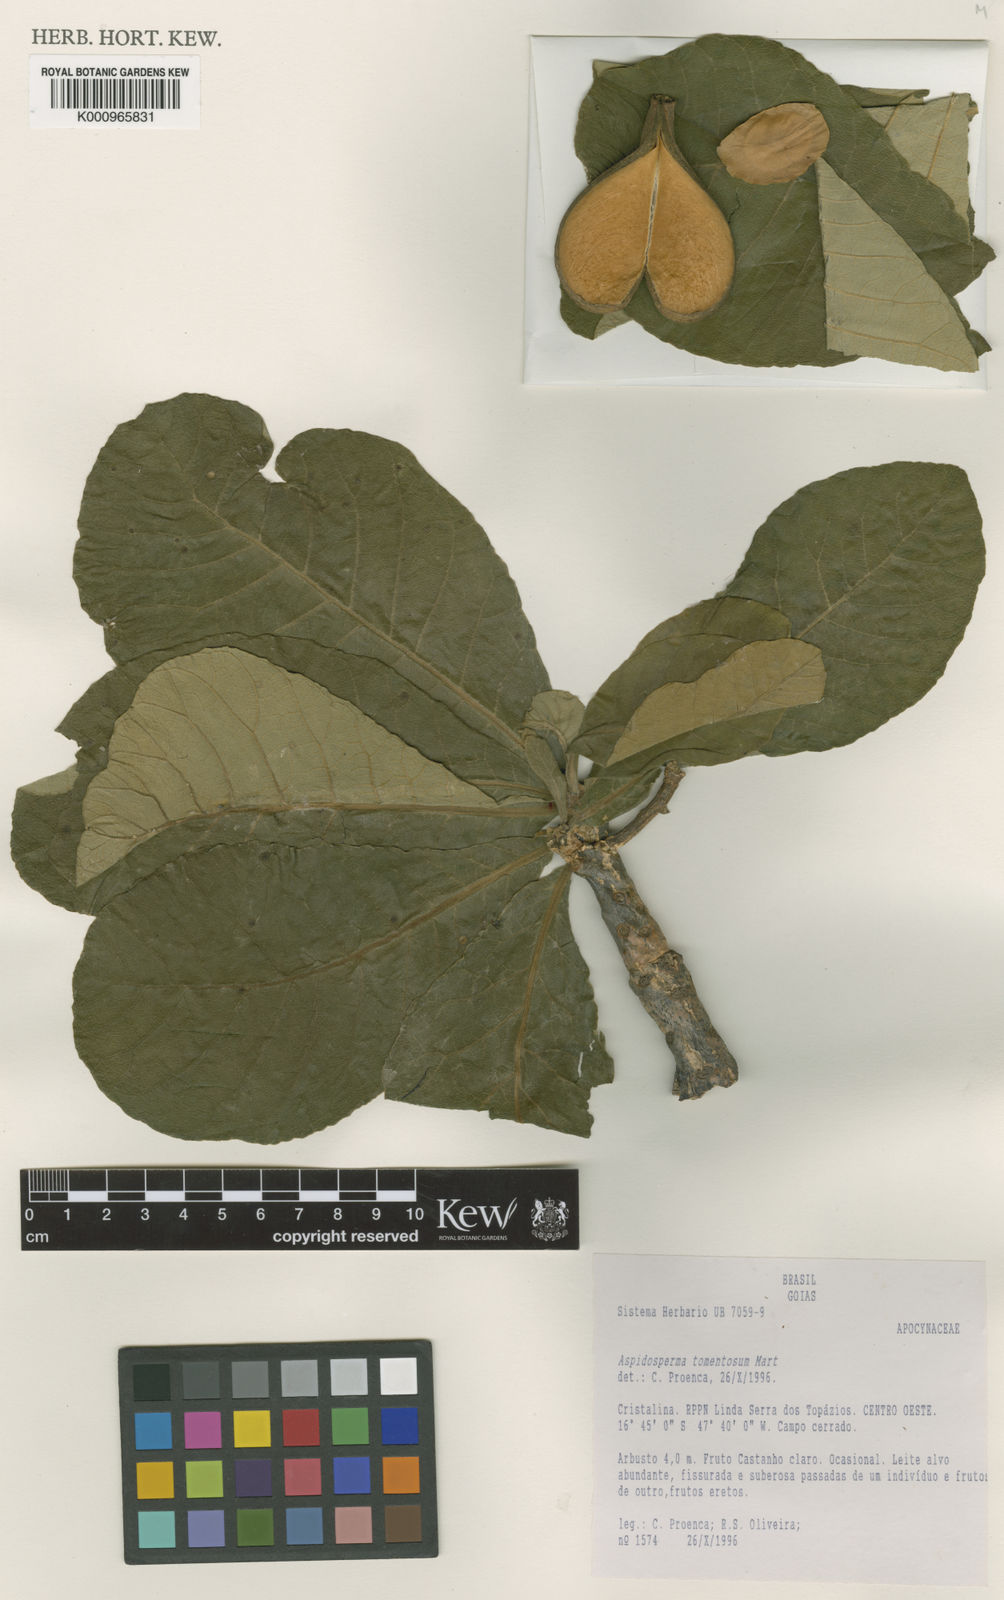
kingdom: Plantae
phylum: Tracheophyta
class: Magnoliopsida
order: Gentianales
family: Apocynaceae
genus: Aspidosperma
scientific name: Aspidosperma tomentosum
